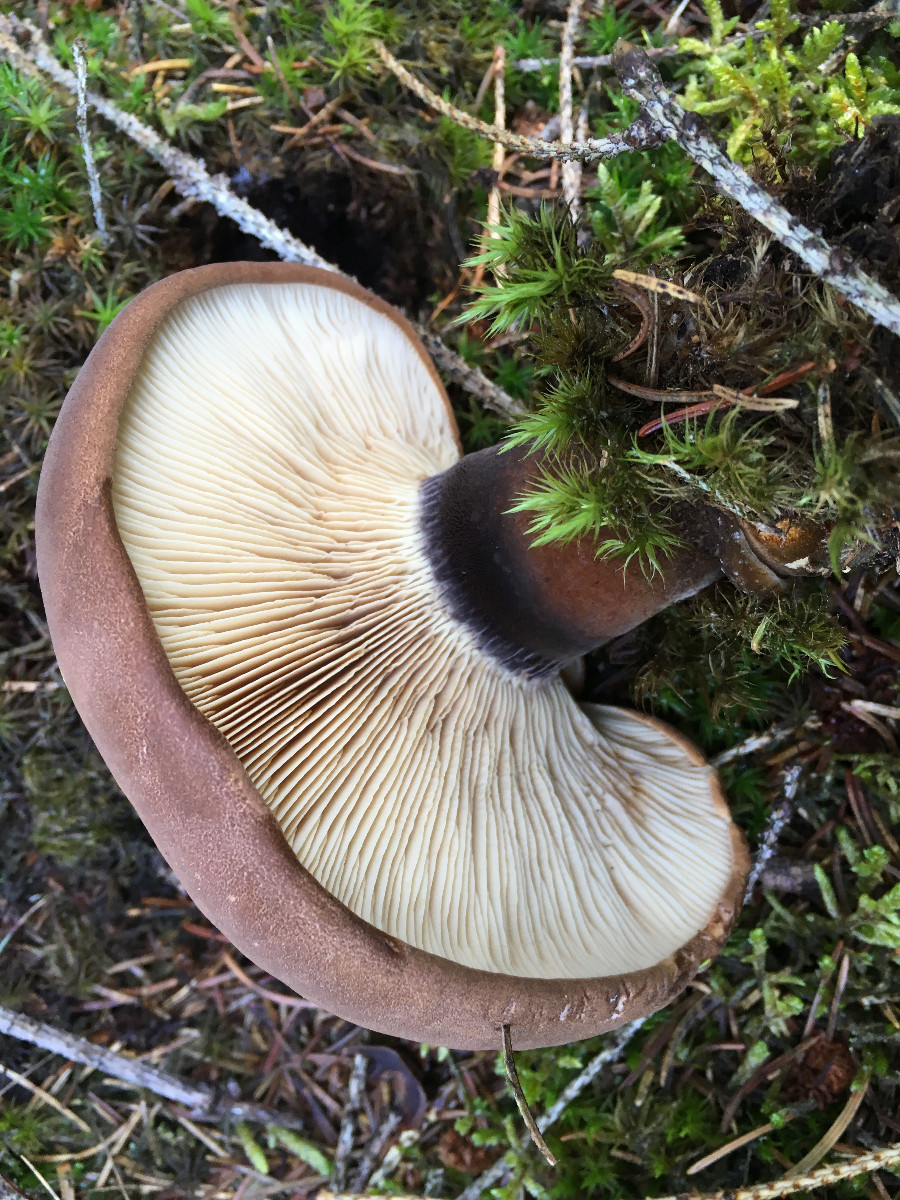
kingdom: Fungi
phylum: Basidiomycota
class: Agaricomycetes
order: Boletales
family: Tapinellaceae
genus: Tapinella
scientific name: Tapinella atrotomentosa
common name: sortfiltet viftesvamp
